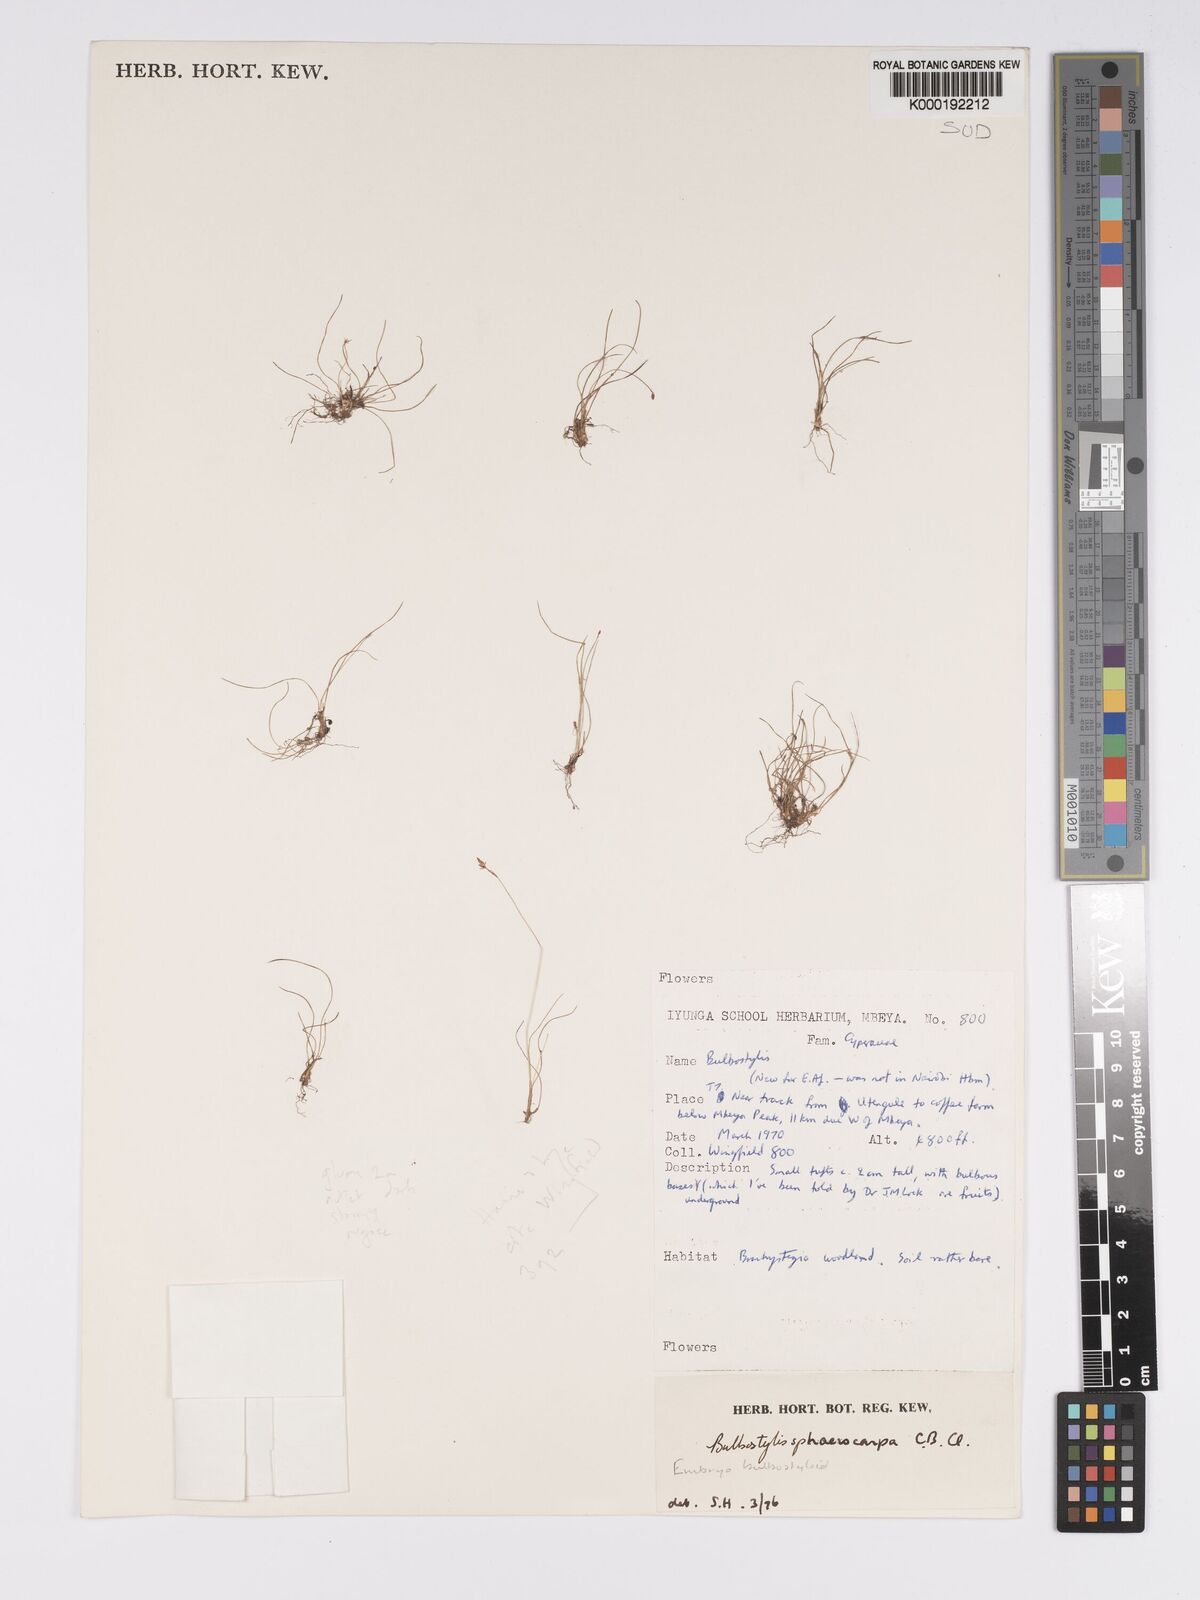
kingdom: Plantae
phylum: Tracheophyta
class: Liliopsida
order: Poales
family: Cyperaceae
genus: Bulbostylis
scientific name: Bulbostylis humilis
